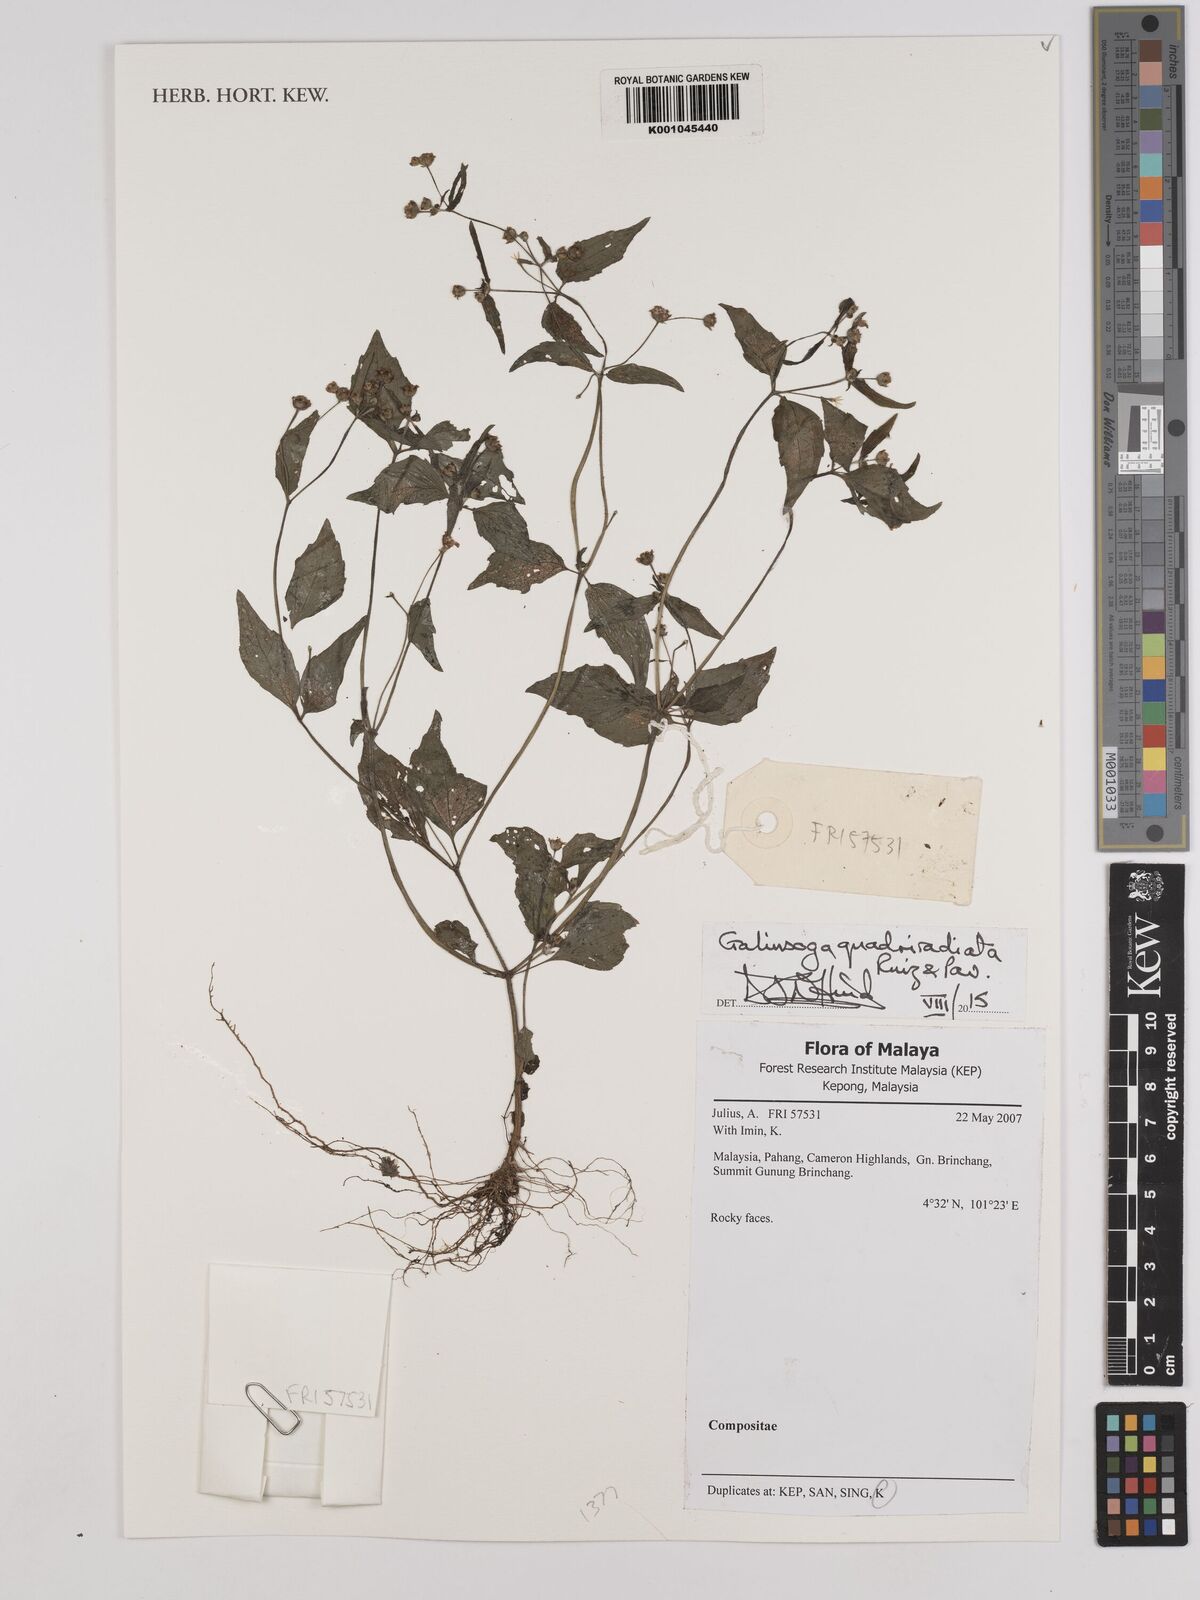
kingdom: Plantae
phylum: Tracheophyta
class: Magnoliopsida
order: Asterales
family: Asteraceae
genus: Galinsoga
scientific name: Galinsoga quadriradiata
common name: Shaggy soldier
